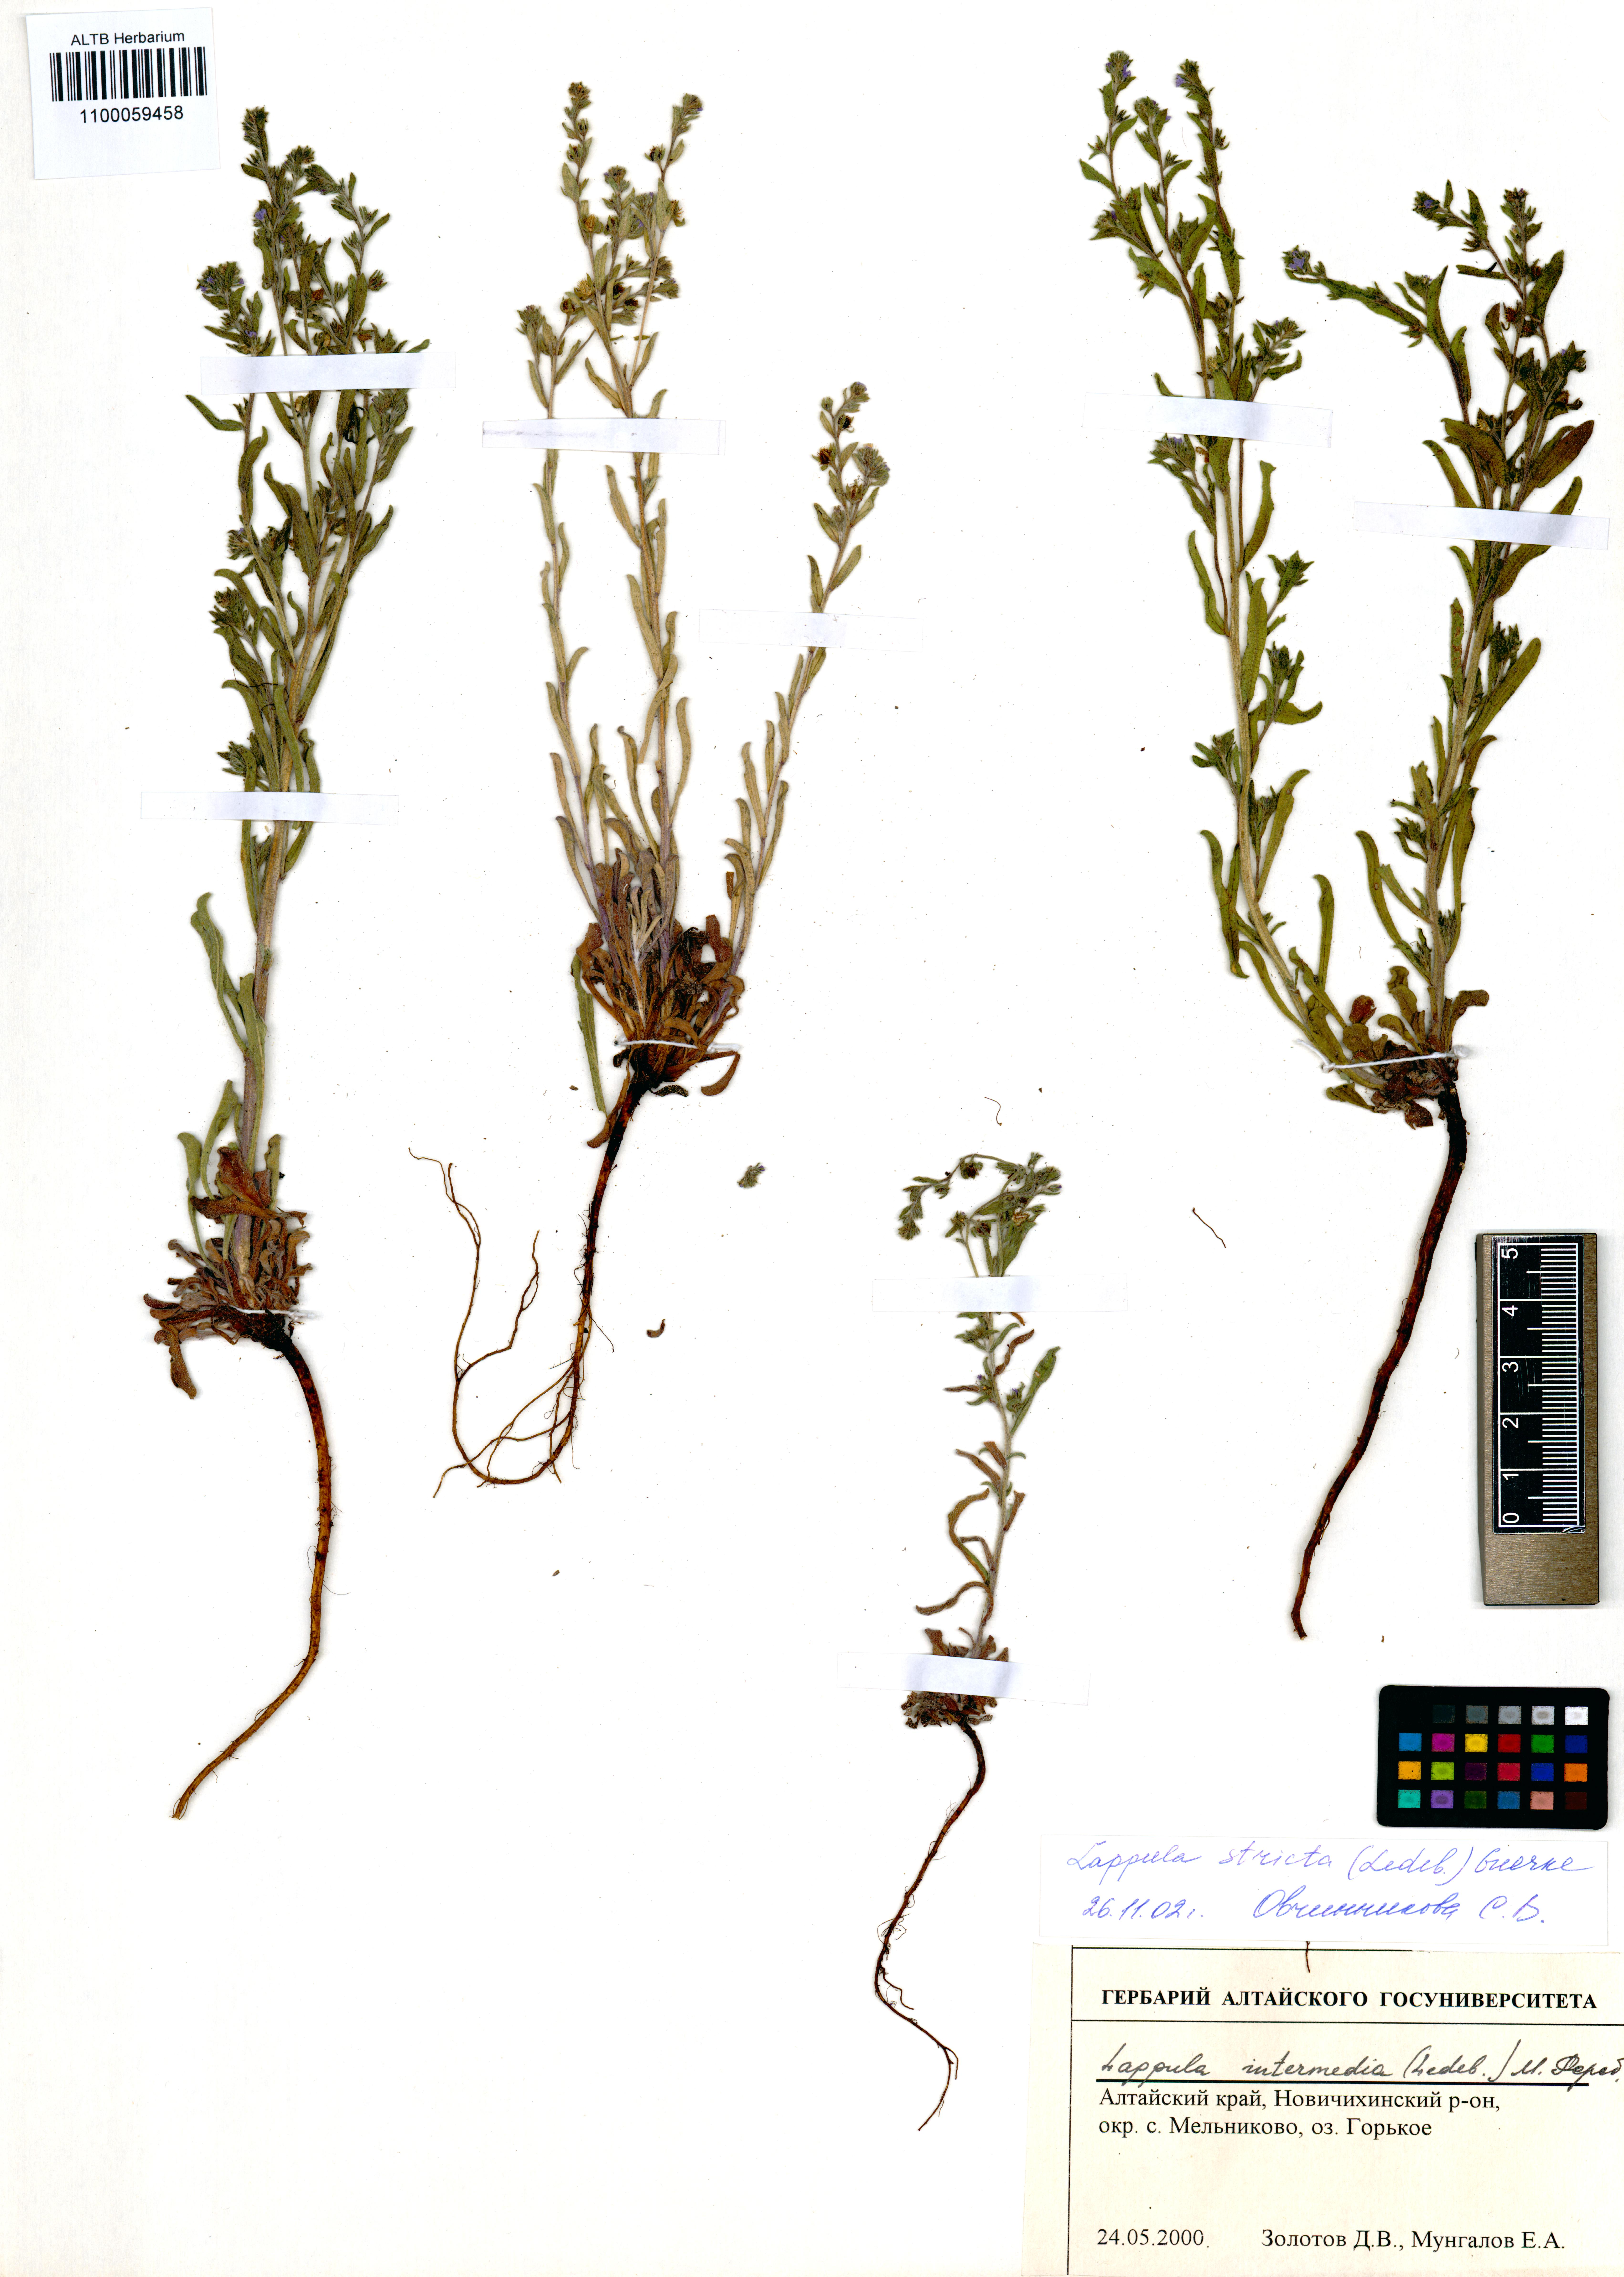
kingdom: Plantae
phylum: Tracheophyta
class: Magnoliopsida
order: Boraginales
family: Boraginaceae
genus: Lappula
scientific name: Lappula stricta
